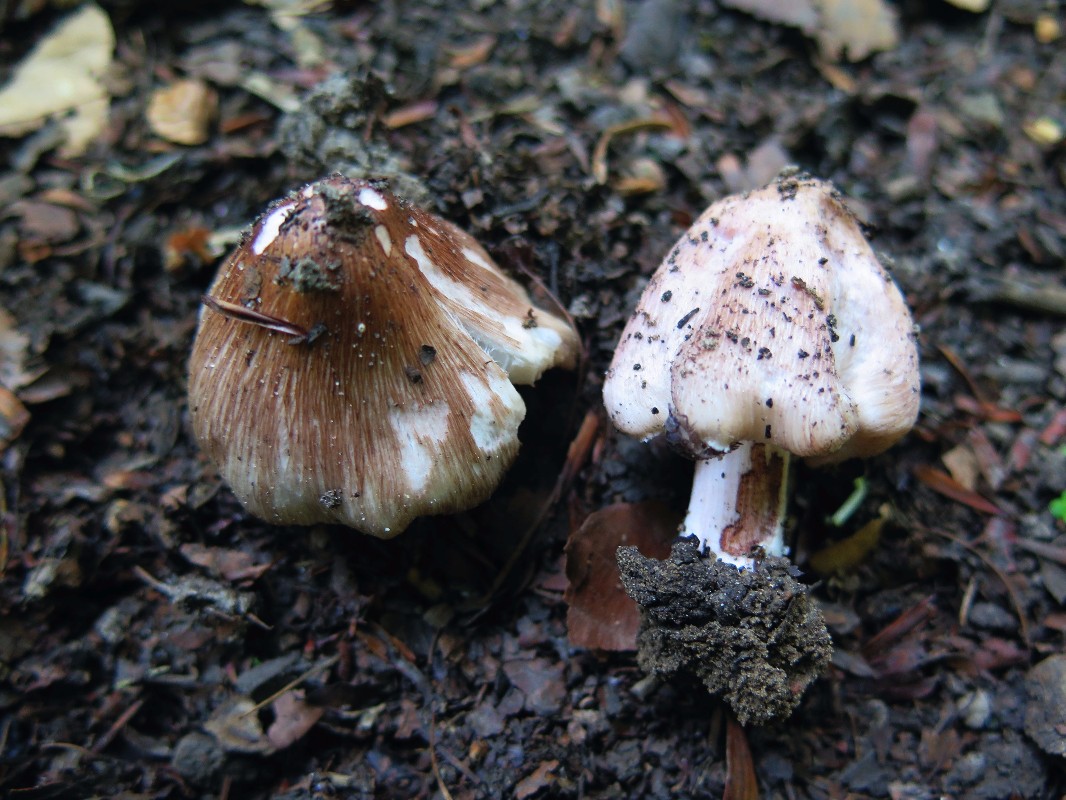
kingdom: Fungi
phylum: Basidiomycota
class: Agaricomycetes
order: Agaricales
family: Inocybaceae
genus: Inosperma
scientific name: Inosperma adaequatum
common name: vinrød trævlhat
